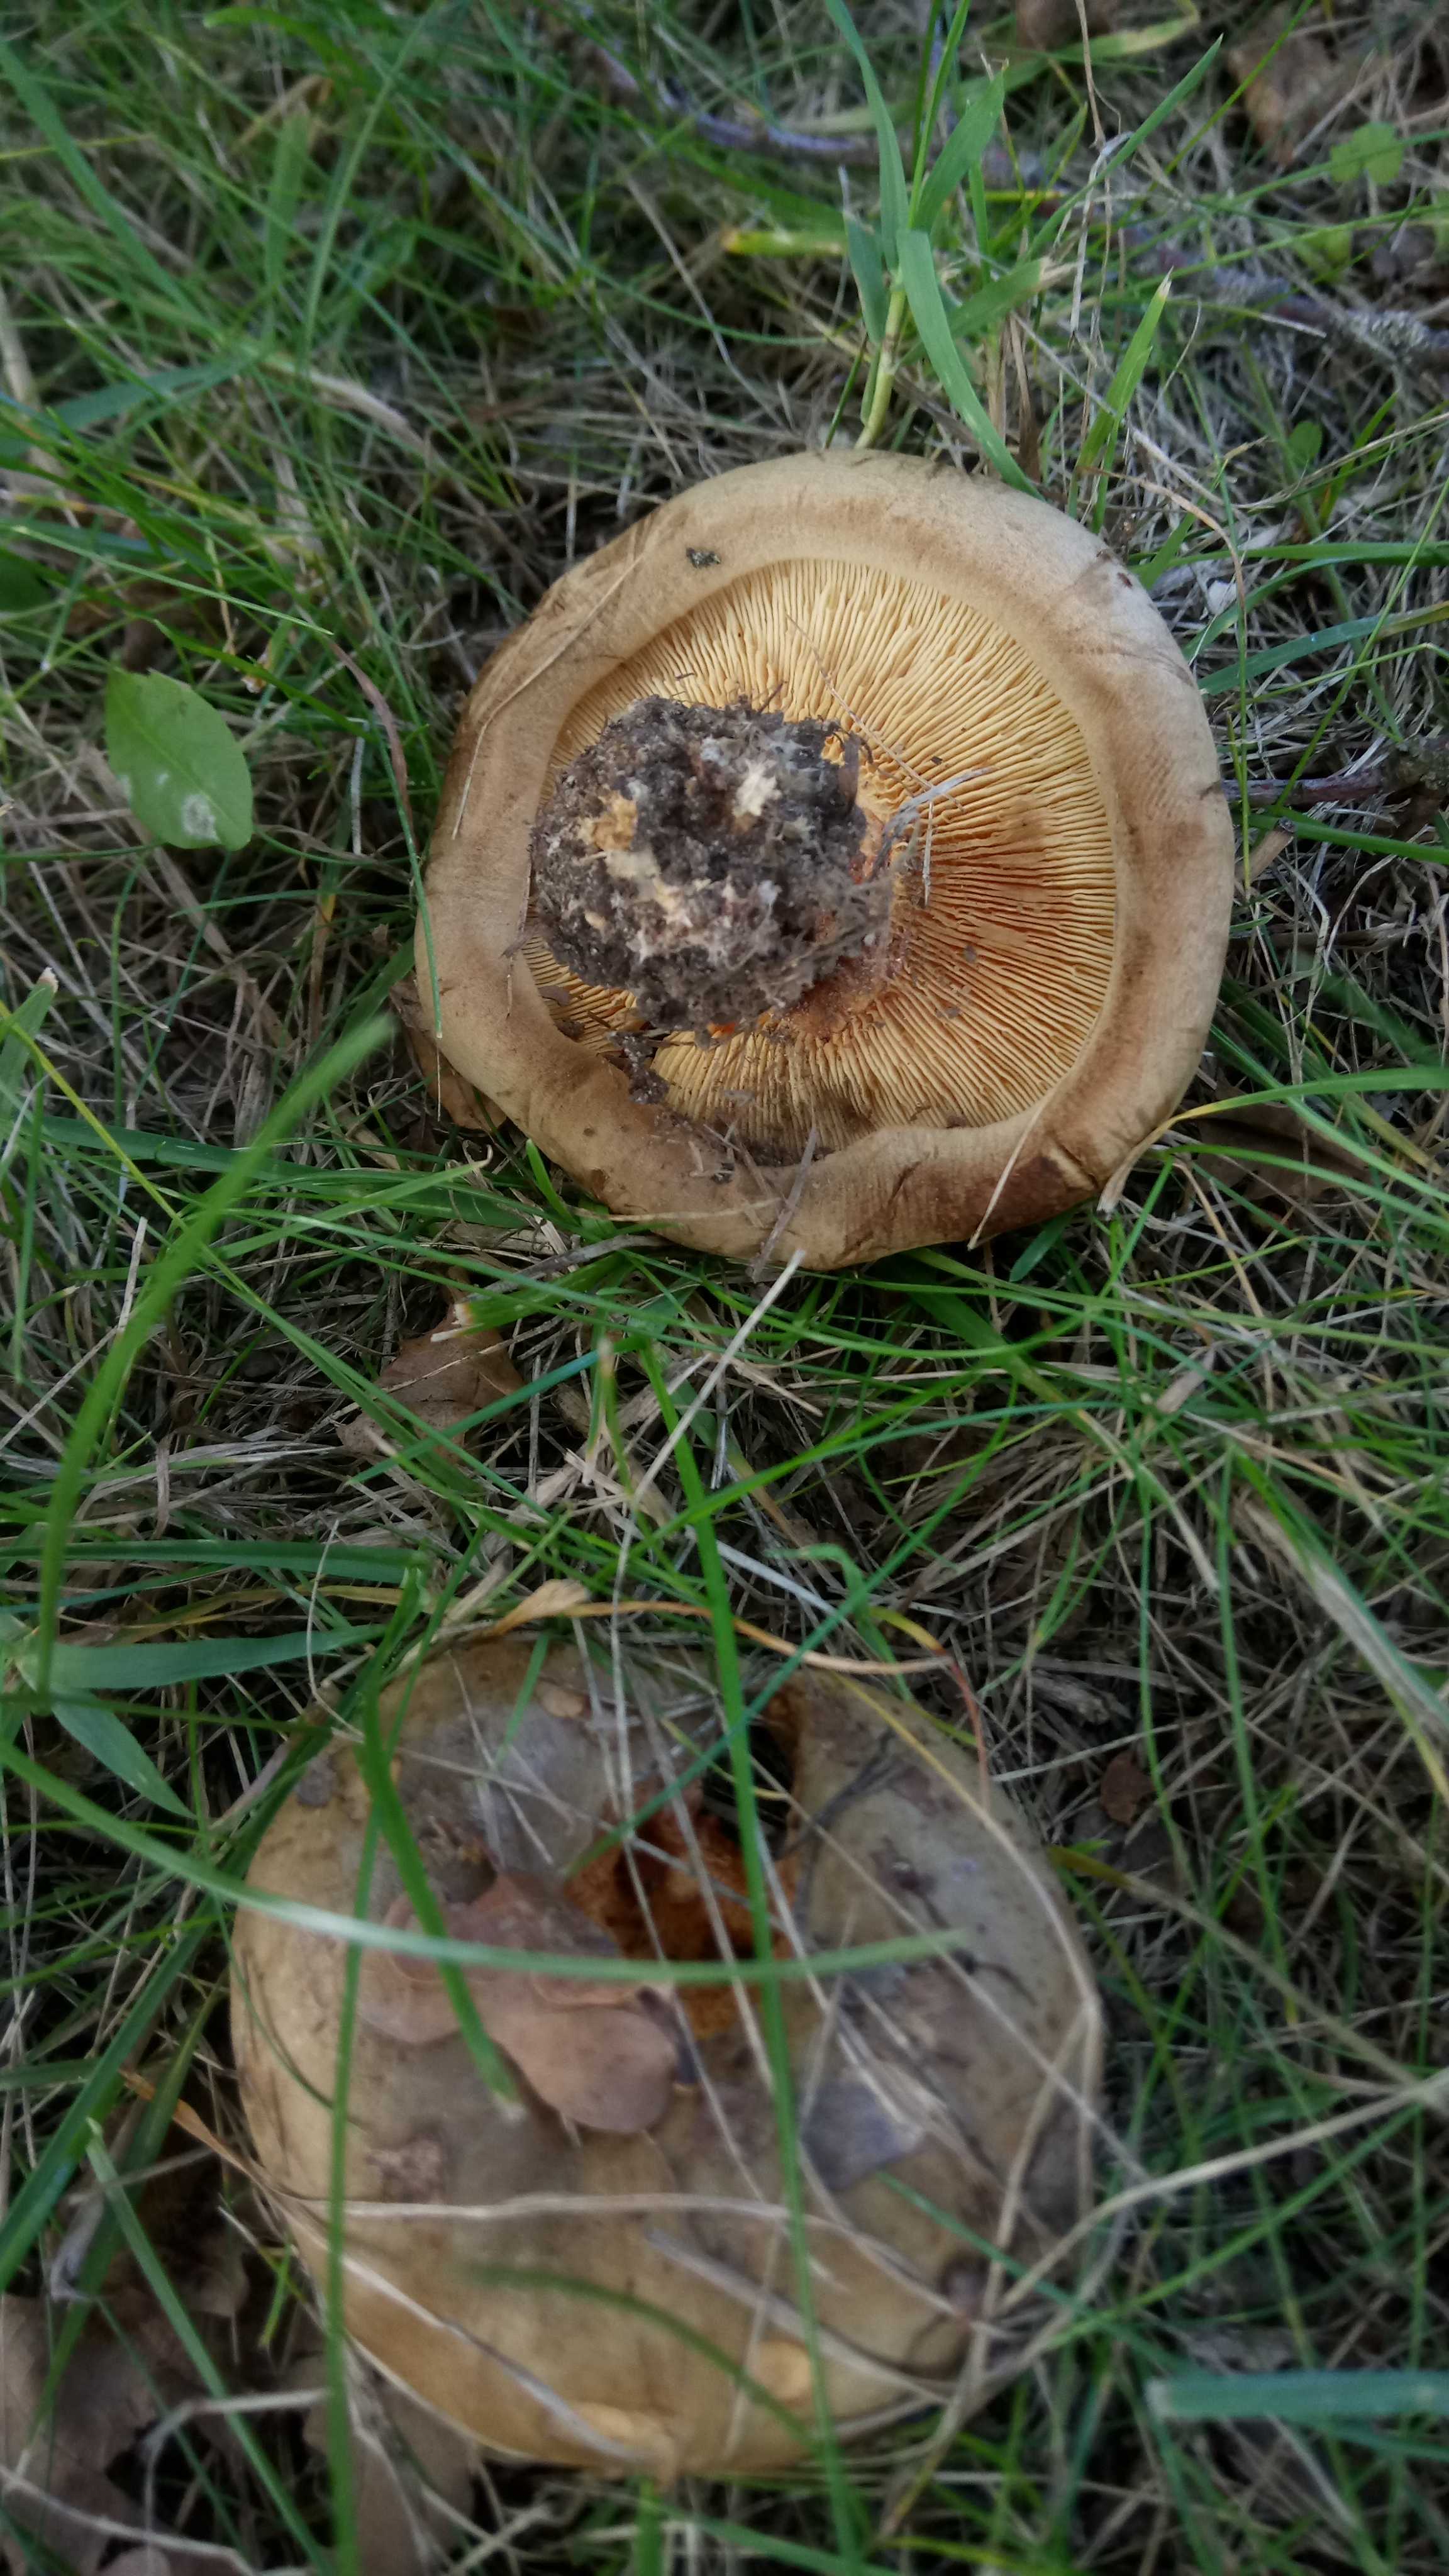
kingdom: Fungi
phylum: Basidiomycota
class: Agaricomycetes
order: Boletales
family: Paxillaceae
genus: Paxillus
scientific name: Paxillus obscurisporus
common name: mahognisporet netbladhat
